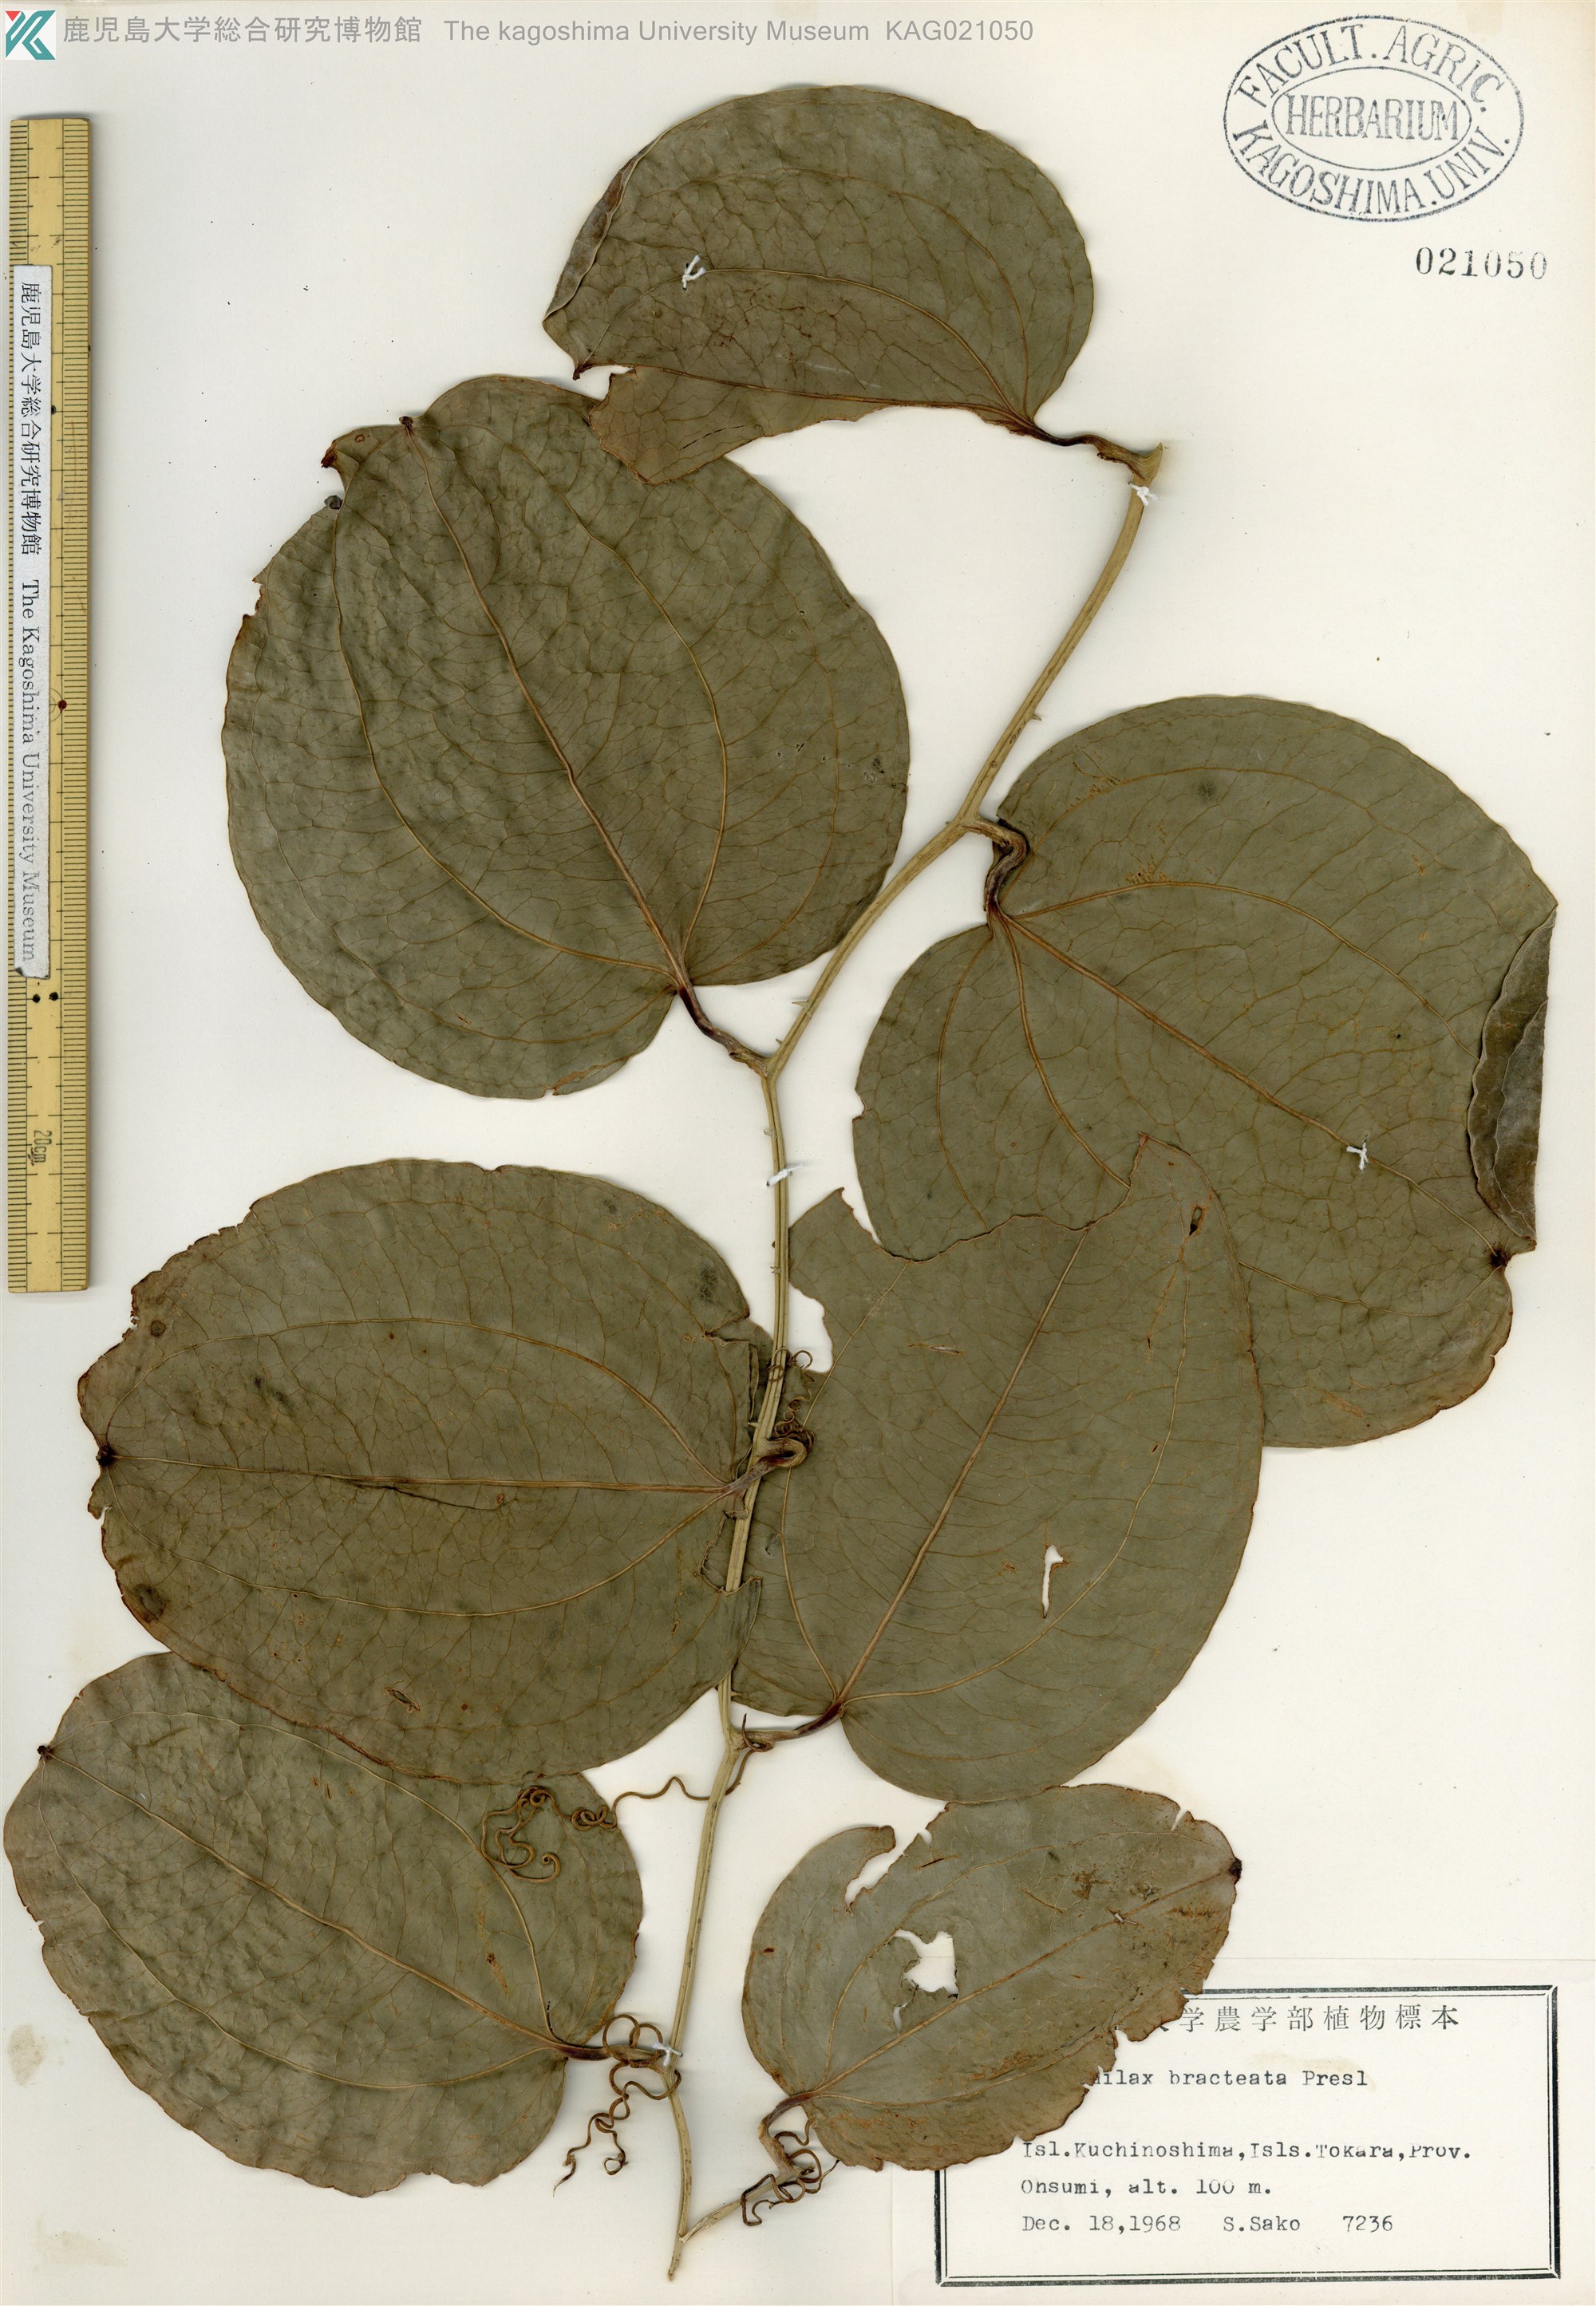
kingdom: Plantae
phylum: Tracheophyta
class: Liliopsida
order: Liliales
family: Smilacaceae
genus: Smilax
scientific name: Smilax bracteata
